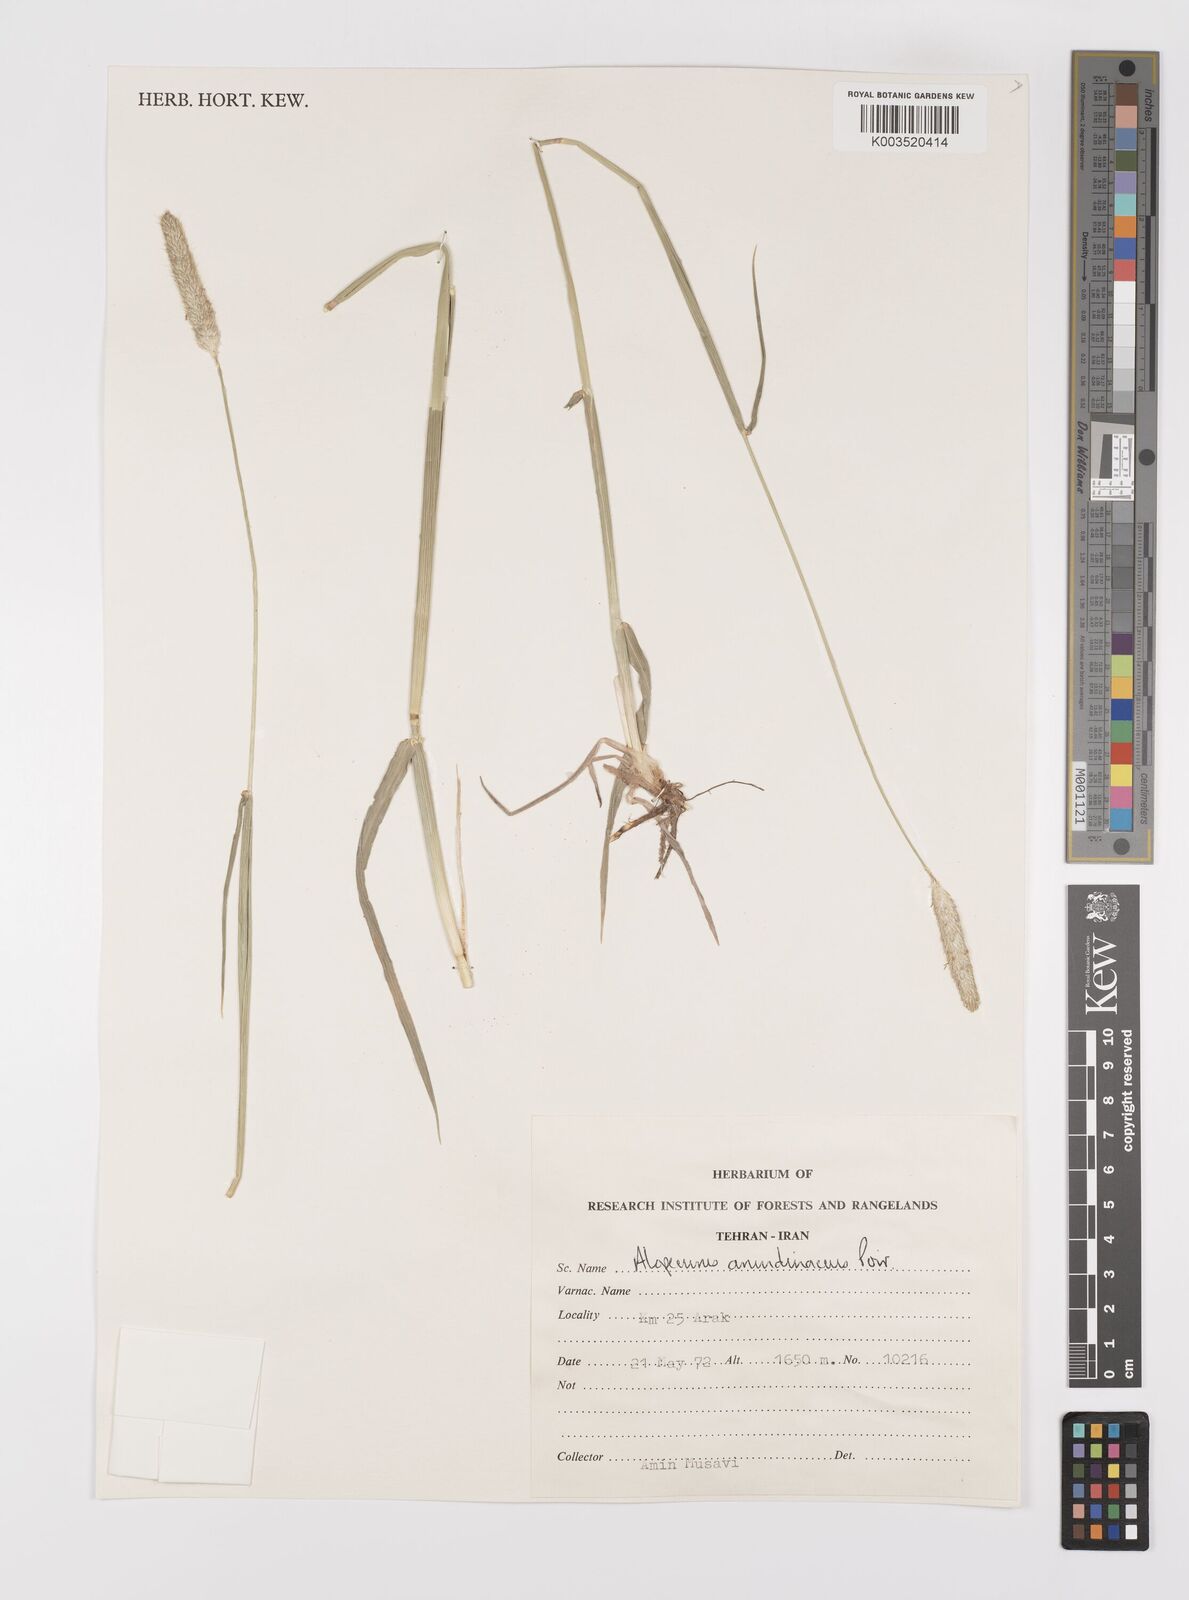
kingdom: Plantae
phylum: Tracheophyta
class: Liliopsida
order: Poales
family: Poaceae
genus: Alopecurus
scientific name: Alopecurus arundinaceus
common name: Creeping meadow foxtail
